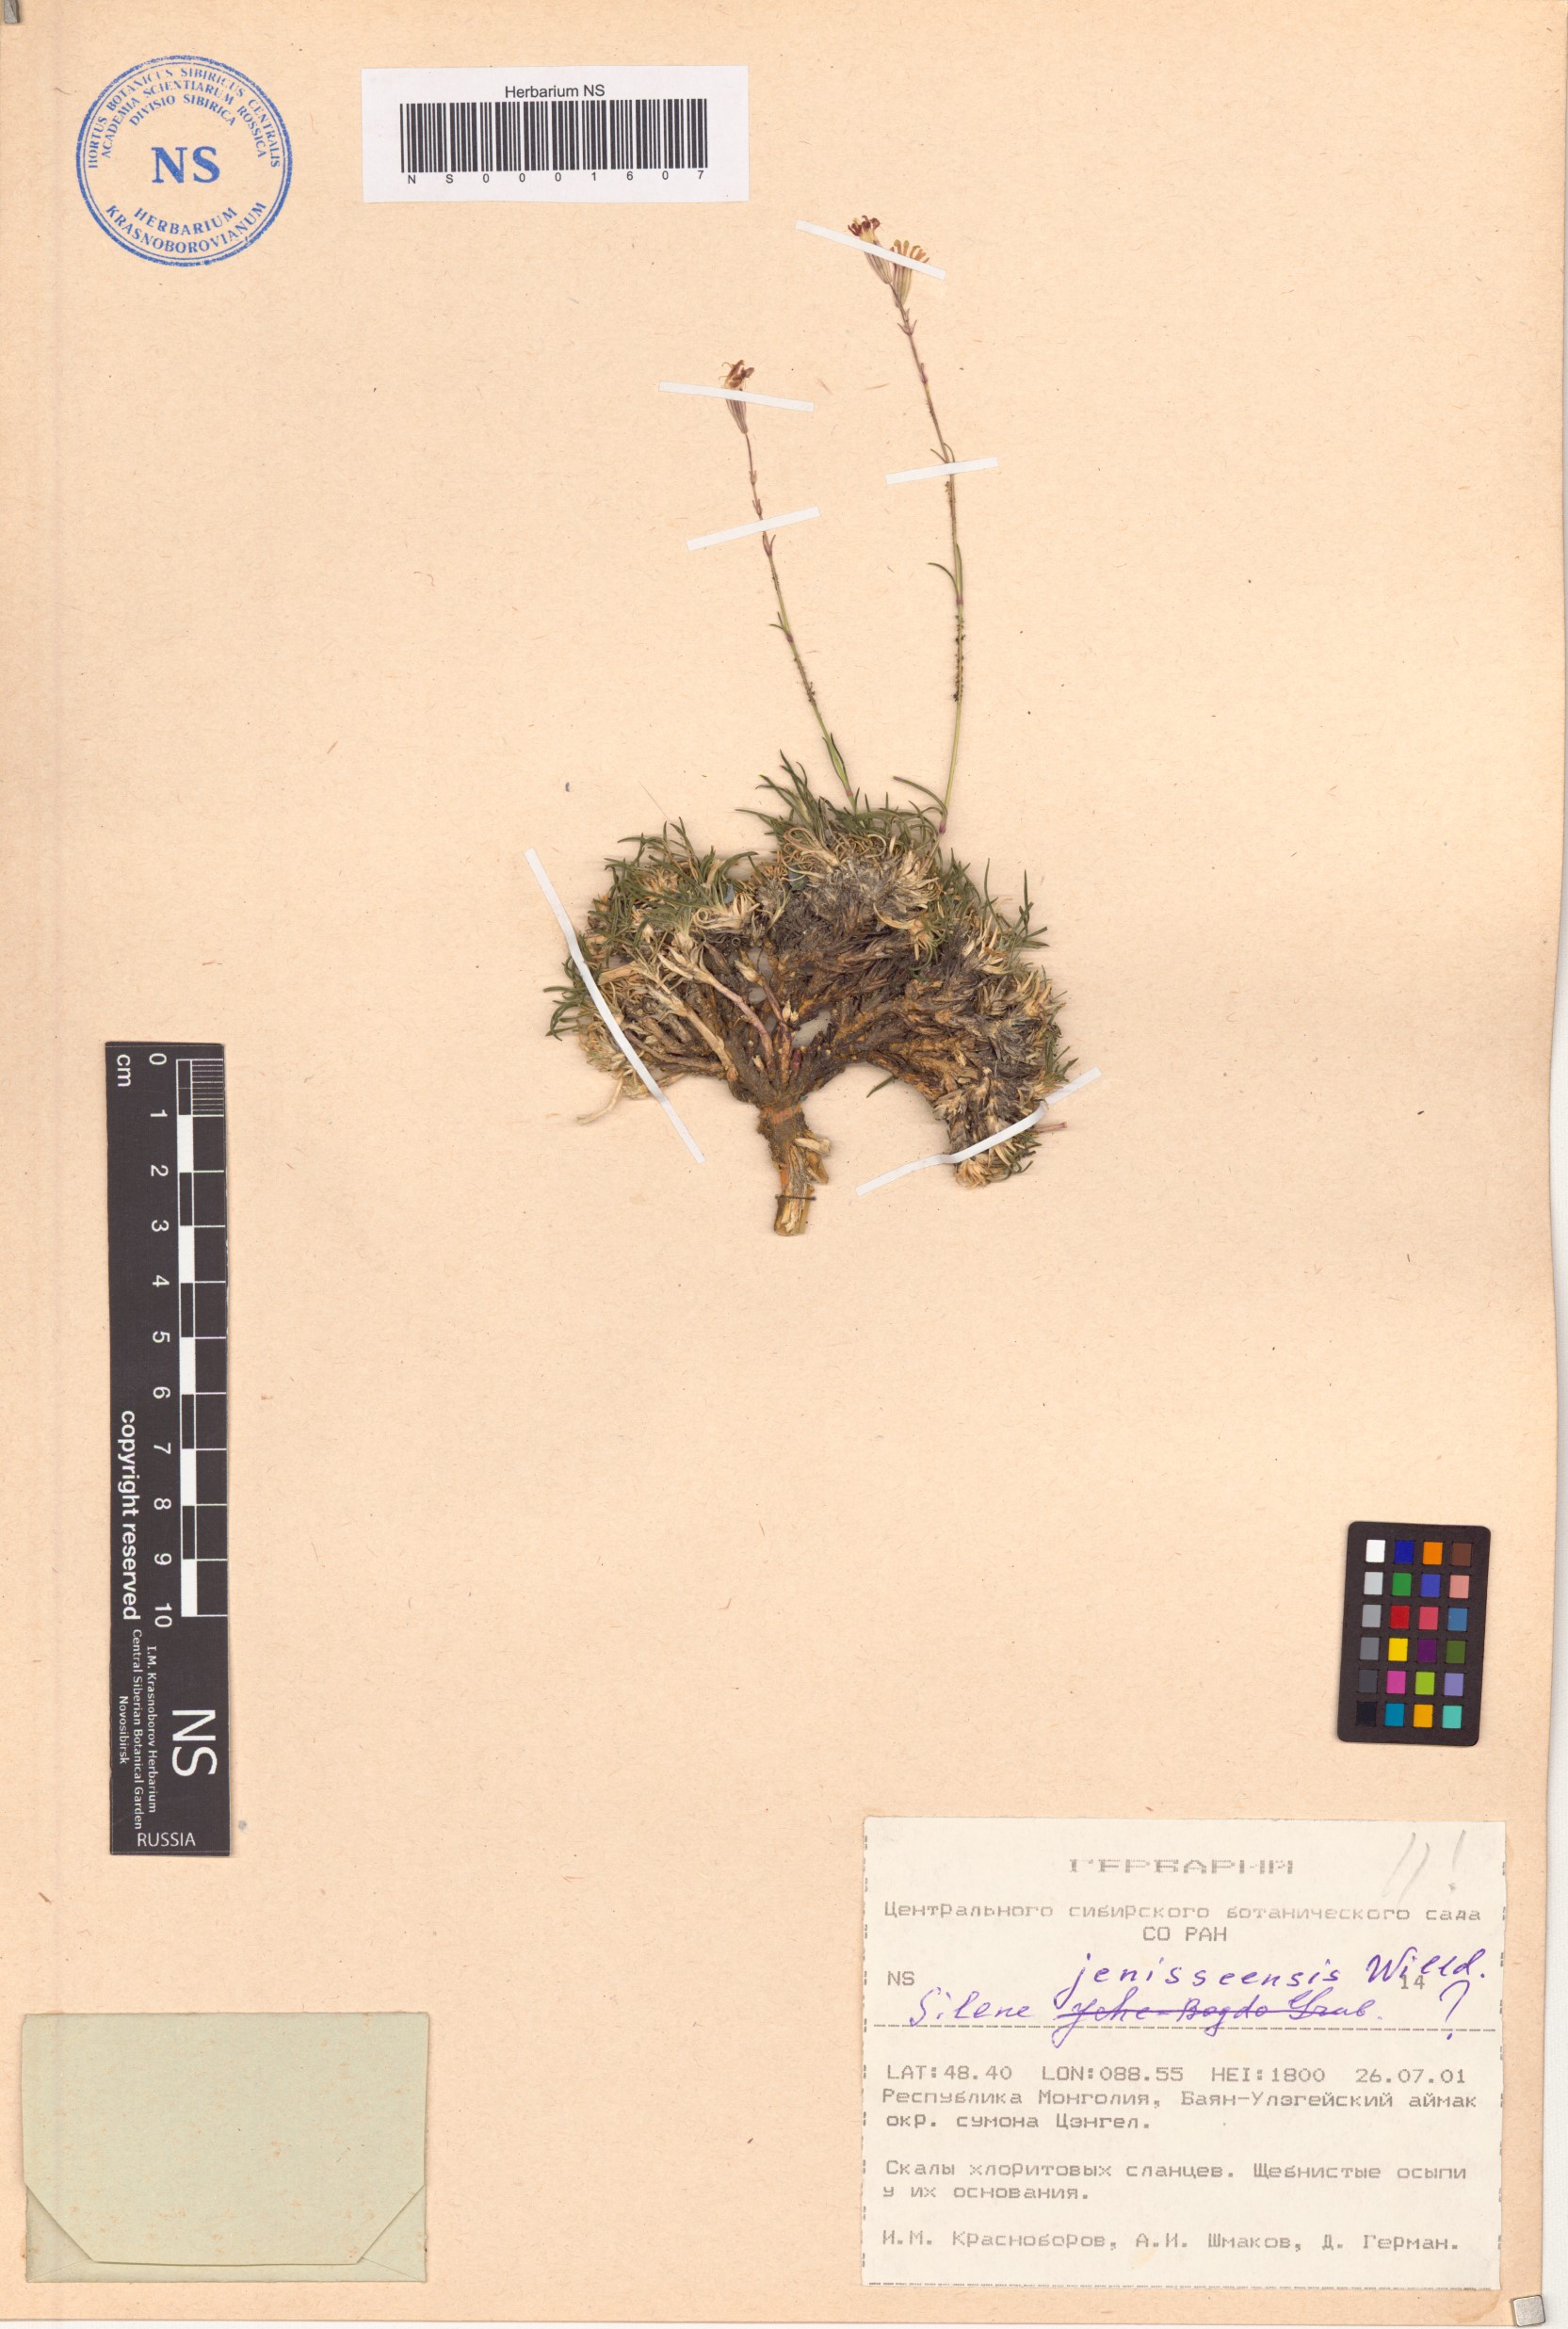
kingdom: Plantae
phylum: Tracheophyta
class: Magnoliopsida
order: Caryophyllales
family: Caryophyllaceae
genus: Silene
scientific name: Silene jeniseensis
